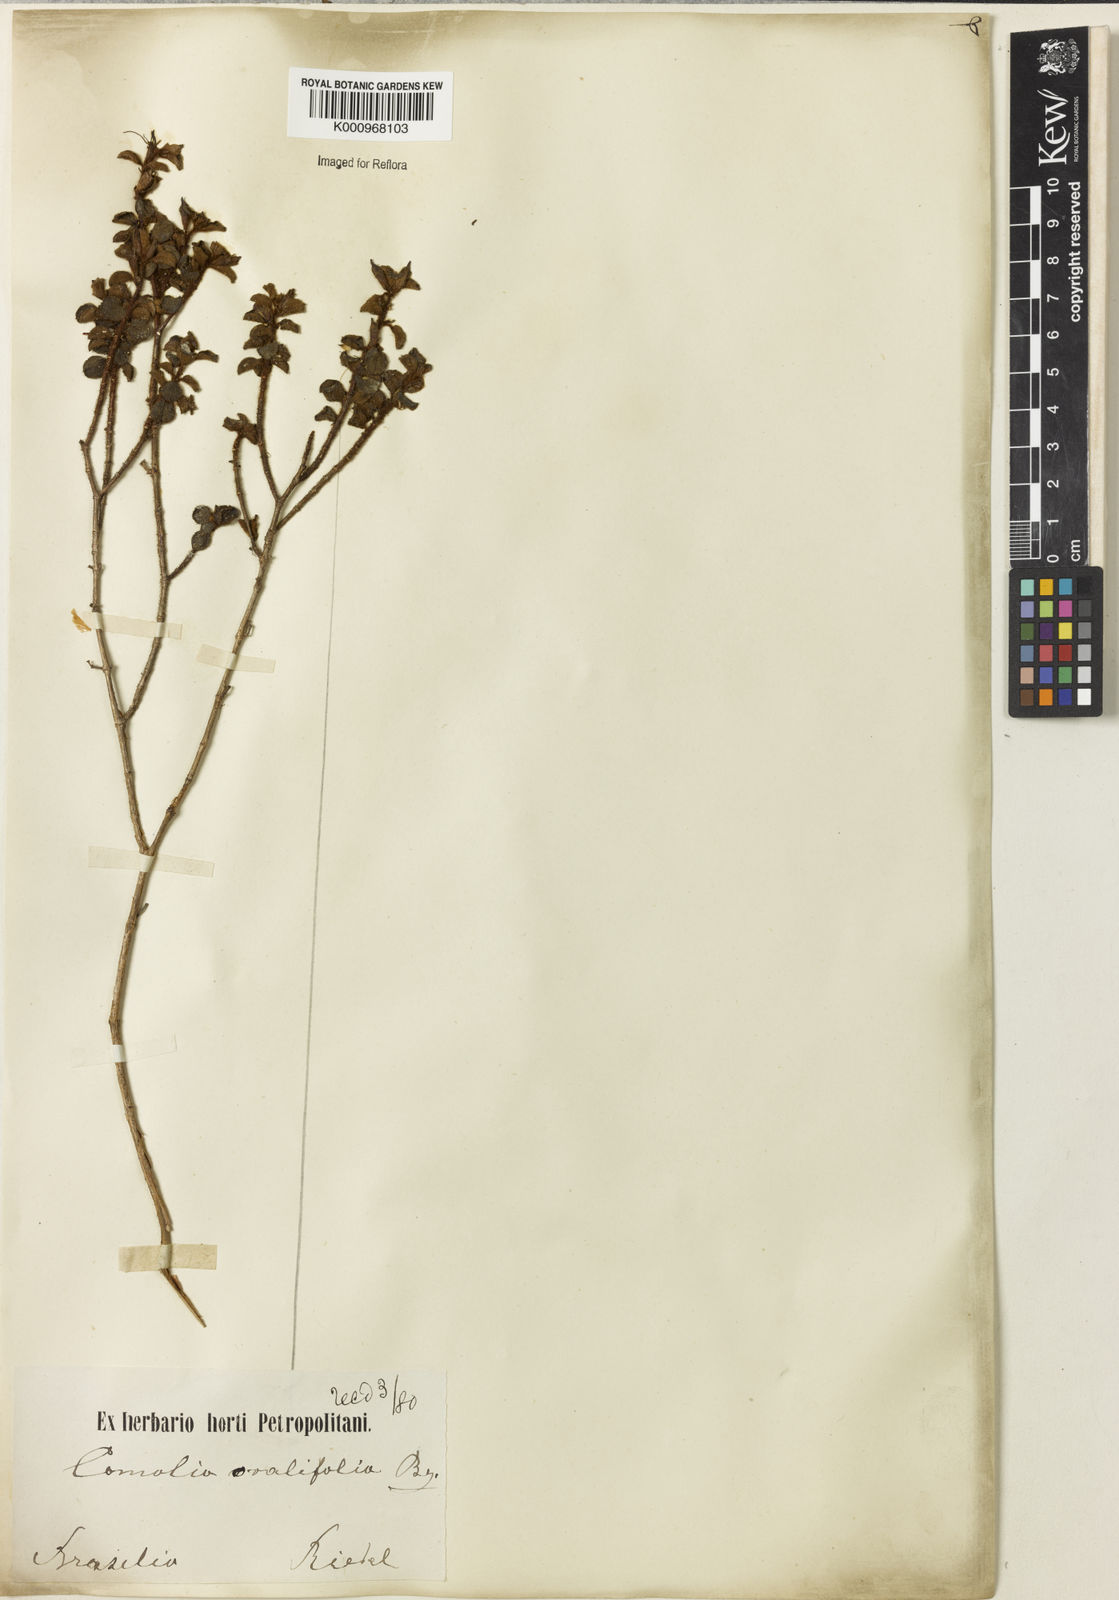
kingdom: Plantae
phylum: Tracheophyta
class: Magnoliopsida
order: Myrtales
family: Melastomataceae
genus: Comolia
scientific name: Comolia ovalifolia
